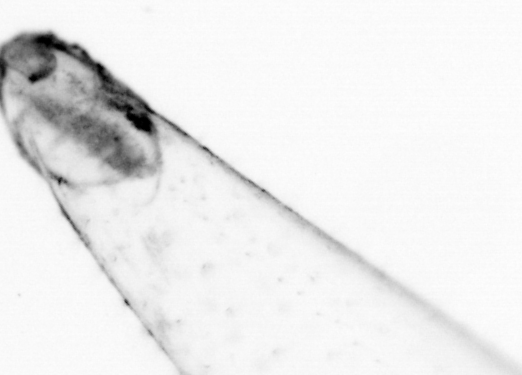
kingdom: Animalia
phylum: Chaetognatha
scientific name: Chaetognatha
